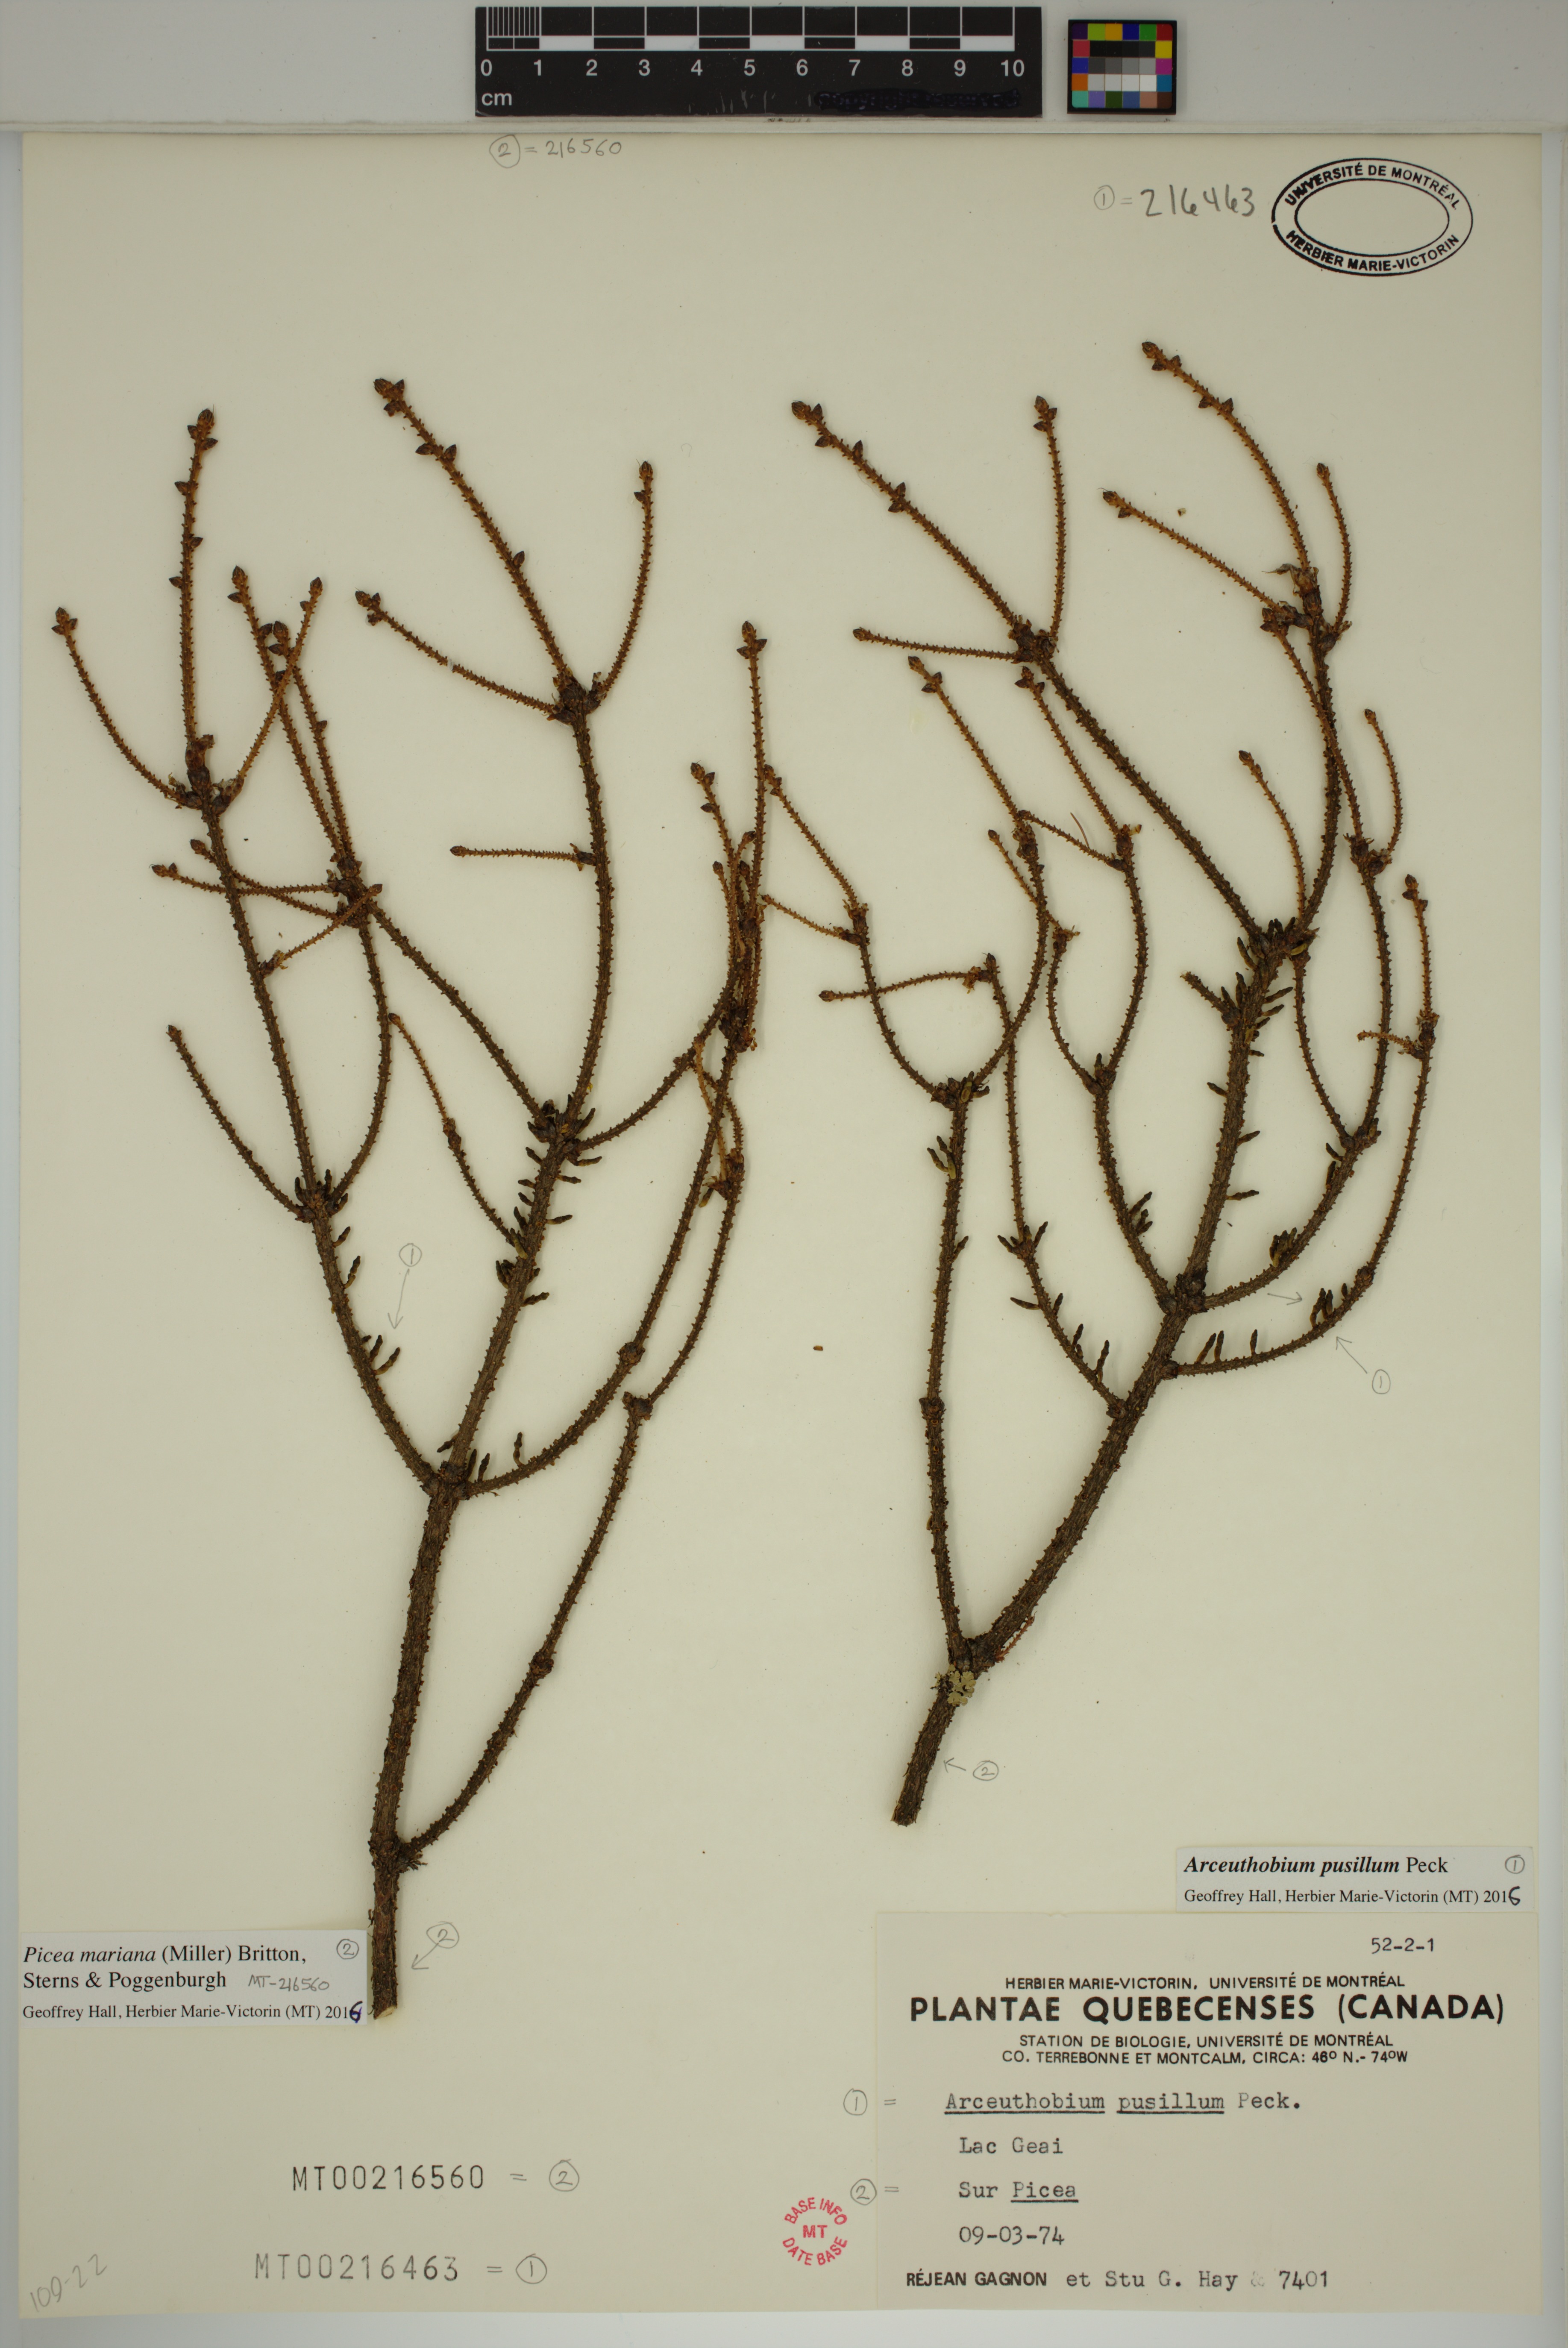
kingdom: Plantae
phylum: Tracheophyta
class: Pinopsida
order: Pinales
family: Pinaceae
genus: Picea
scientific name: Picea mariana
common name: Black spruce
